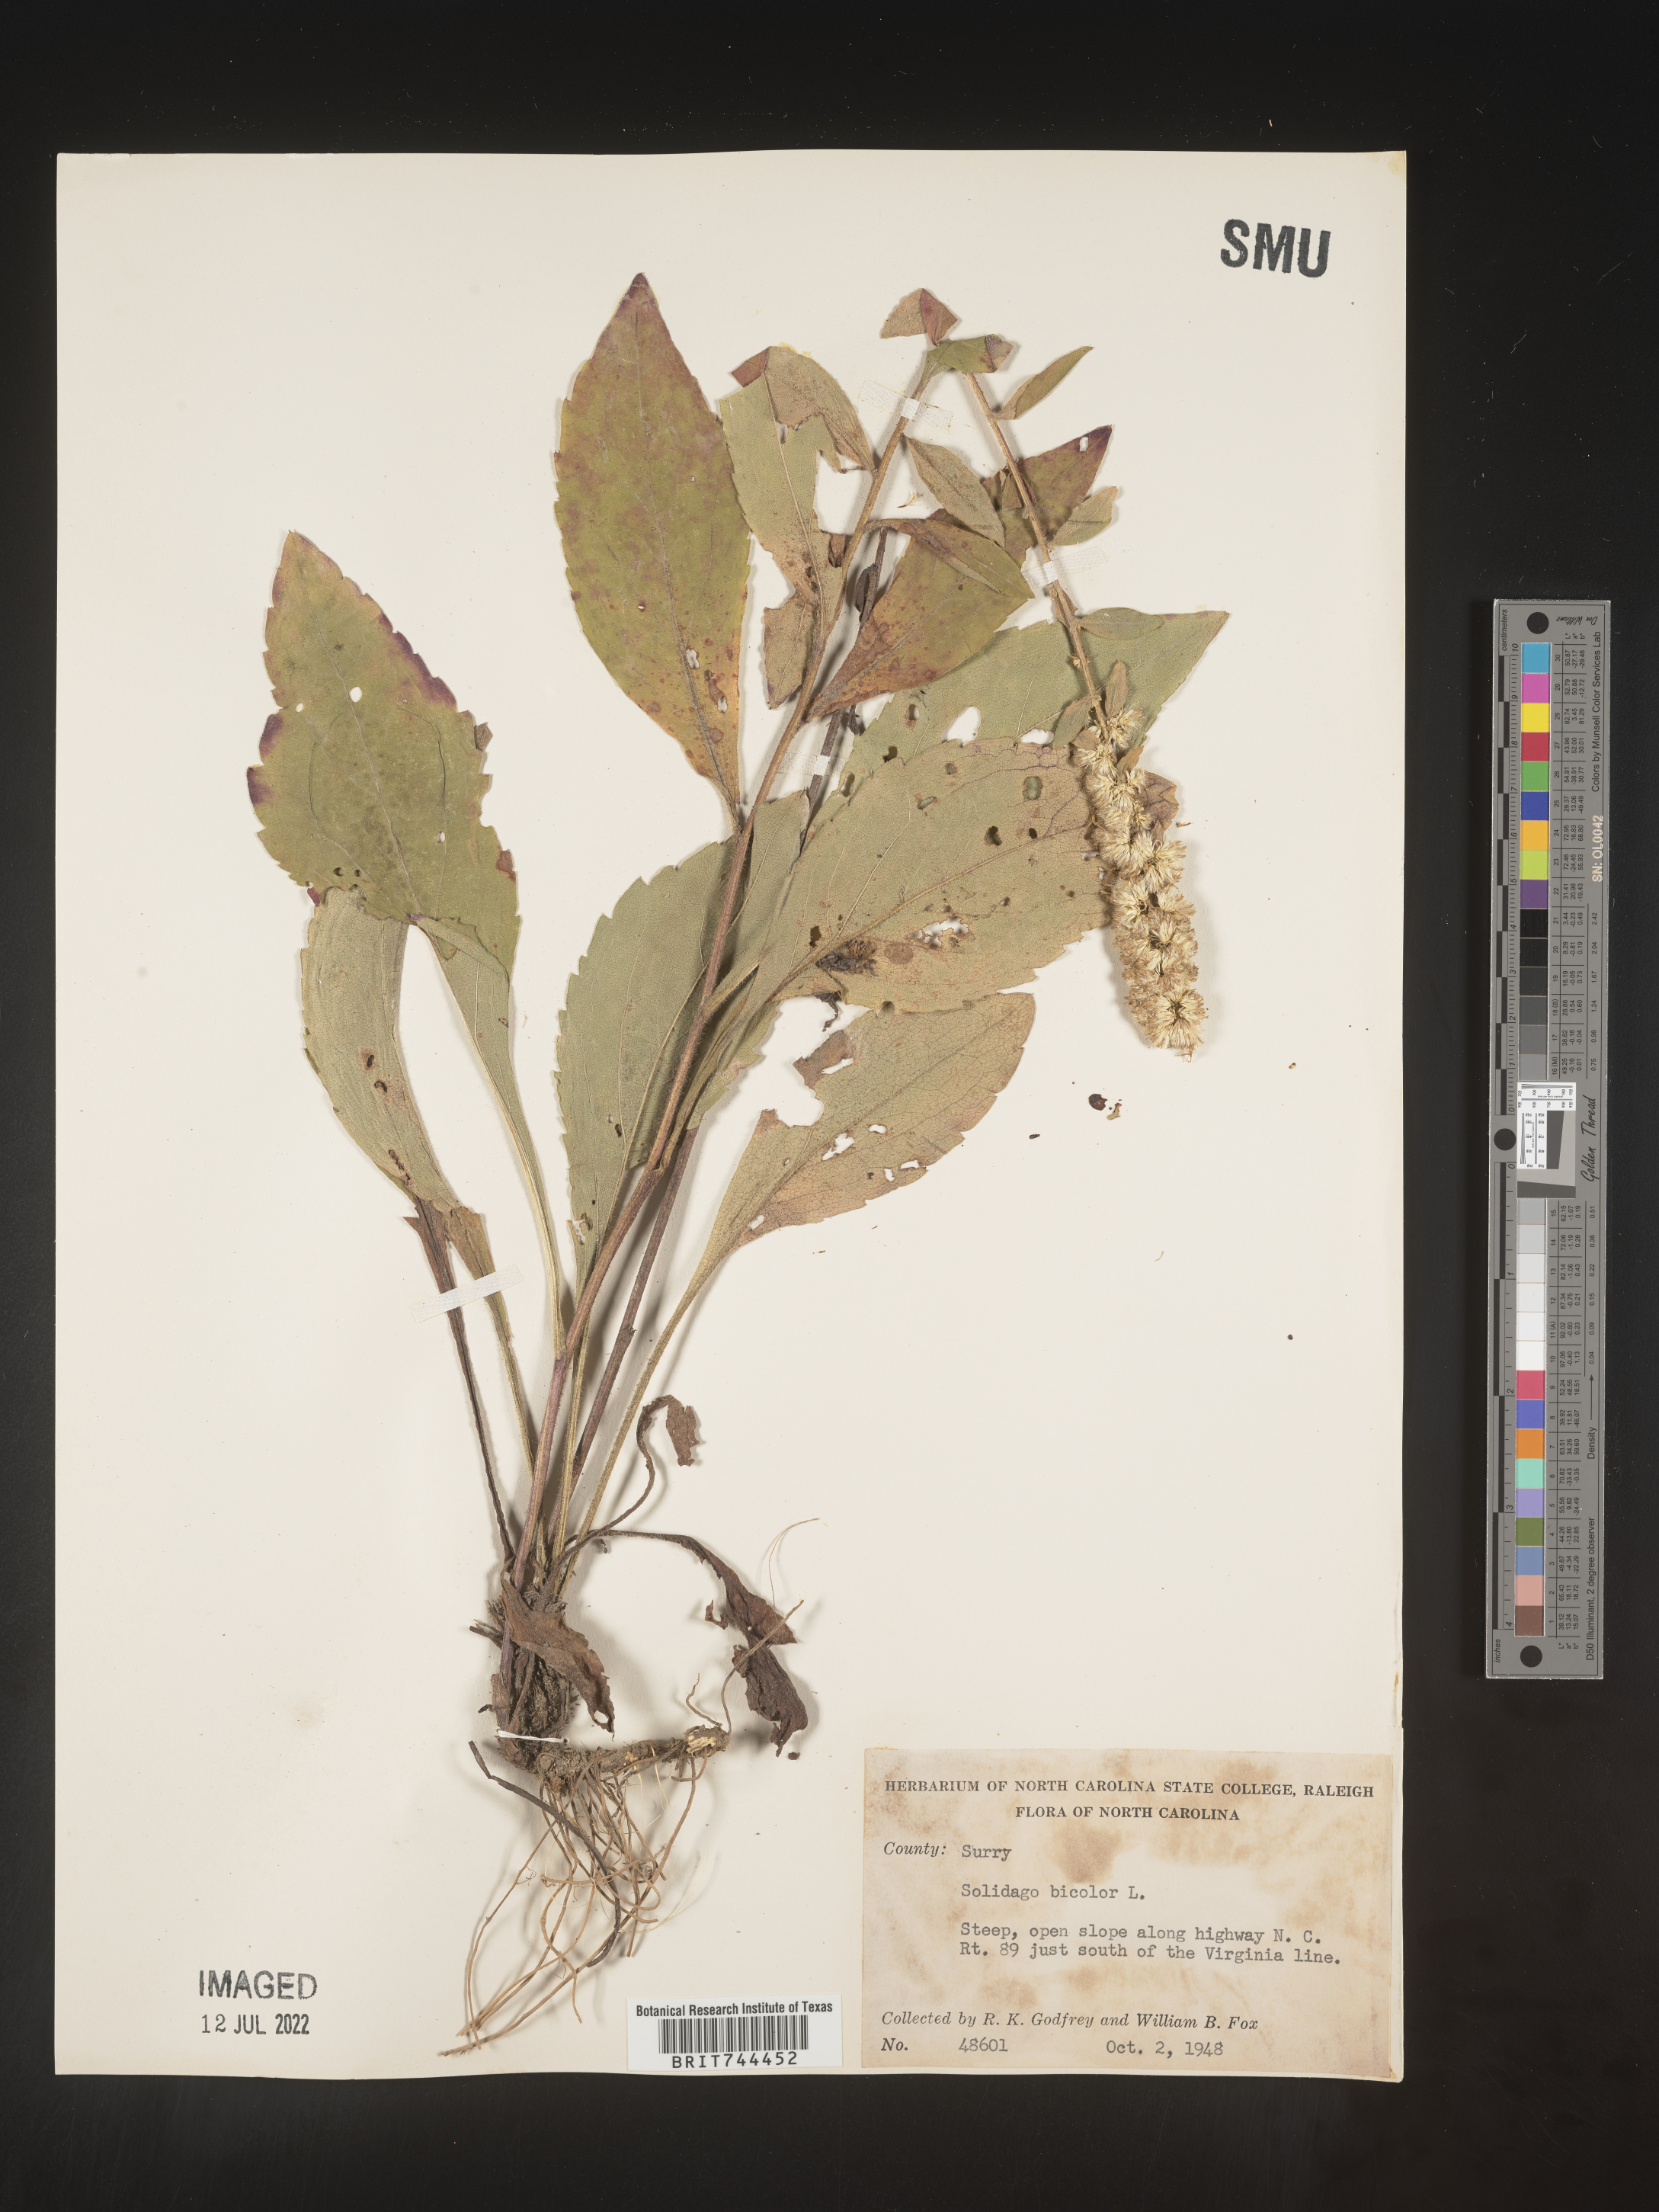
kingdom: Plantae
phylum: Tracheophyta
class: Magnoliopsida
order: Asterales
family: Asteraceae
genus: Solidago
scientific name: Solidago bicolor
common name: Silverrod
